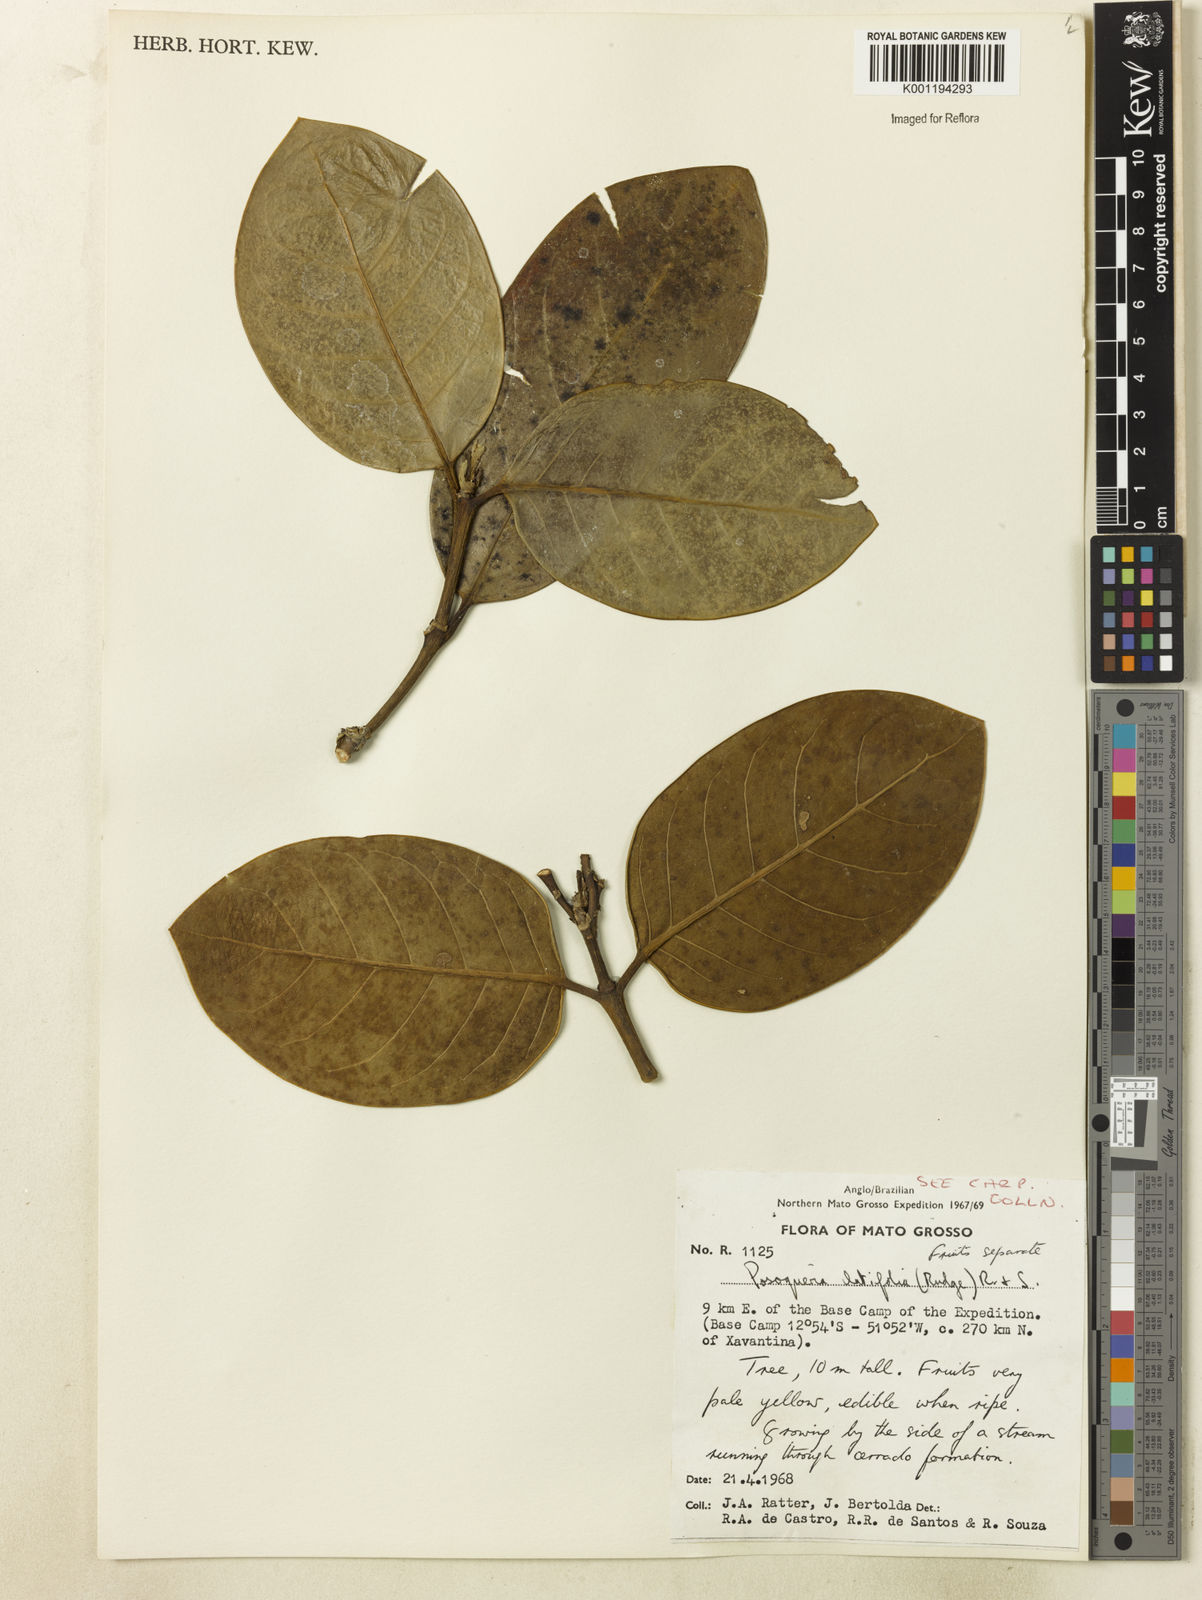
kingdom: Plantae
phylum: Tracheophyta
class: Magnoliopsida
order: Gentianales
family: Rubiaceae
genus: Posoqueria
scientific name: Posoqueria latifolia
